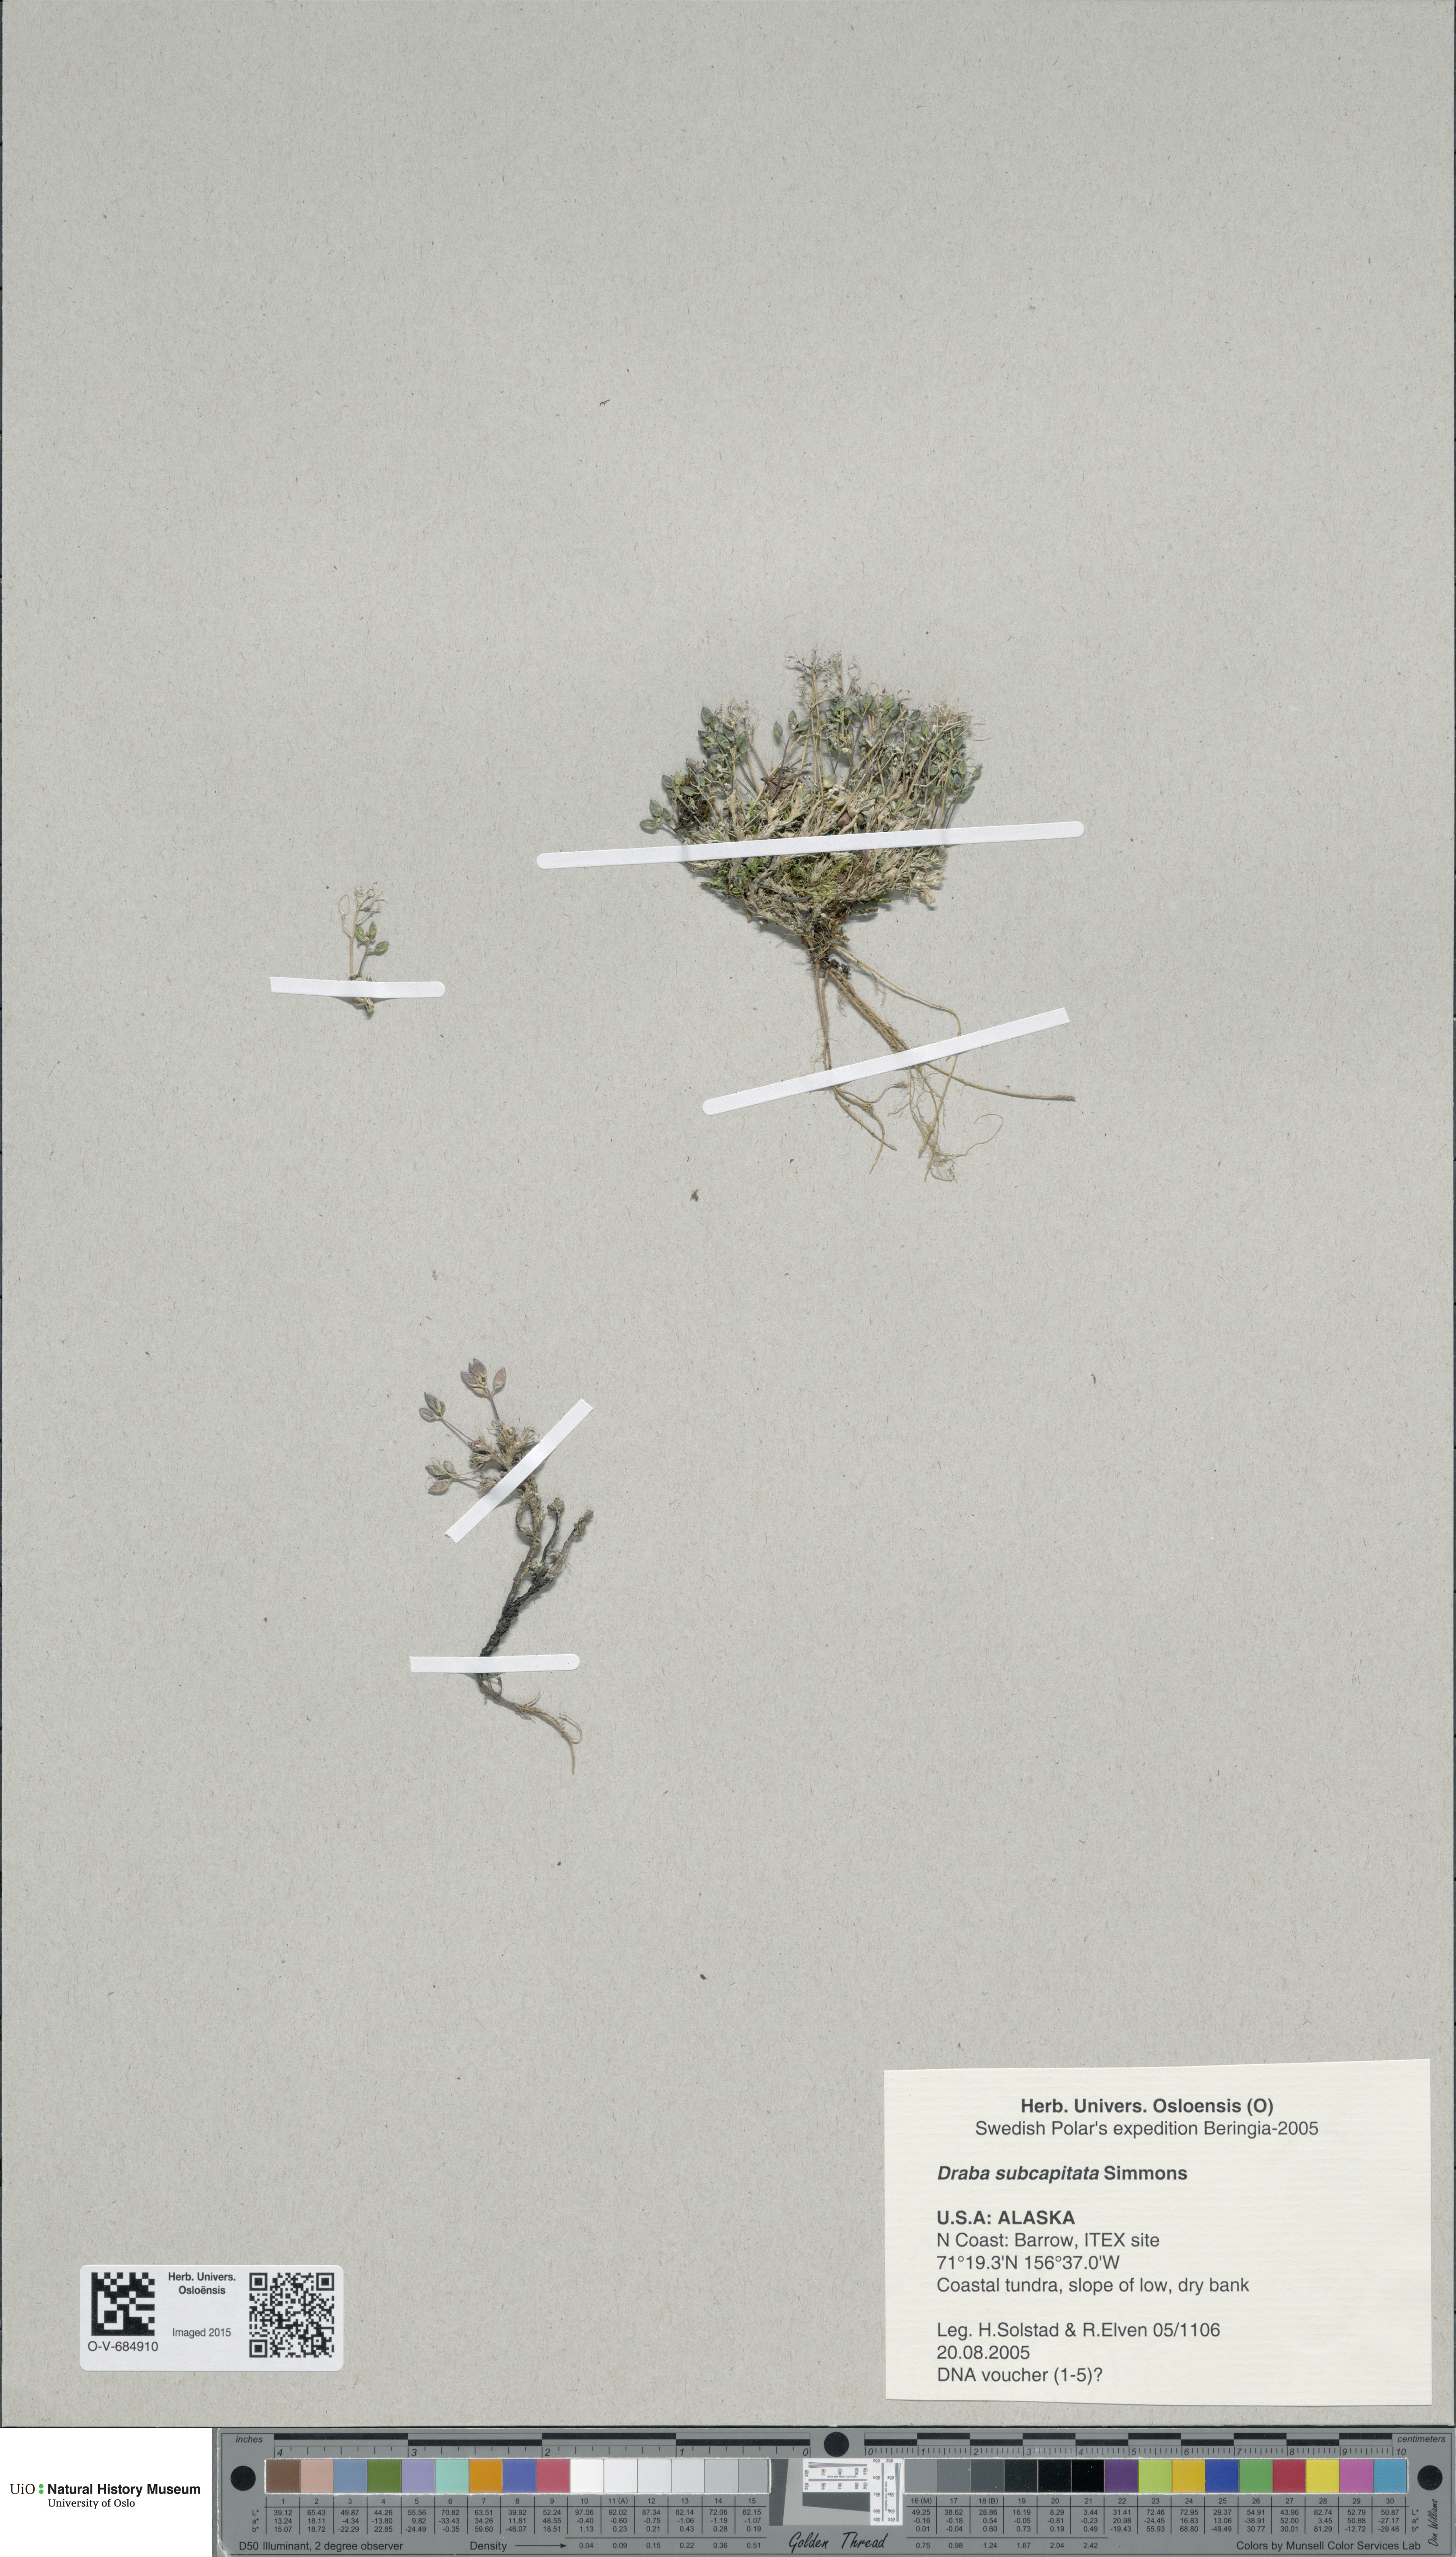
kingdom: Plantae
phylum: Tracheophyta
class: Magnoliopsida
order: Brassicales
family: Brassicaceae
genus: Draba
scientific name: Draba subcapitata
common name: Ellesmere island draba
